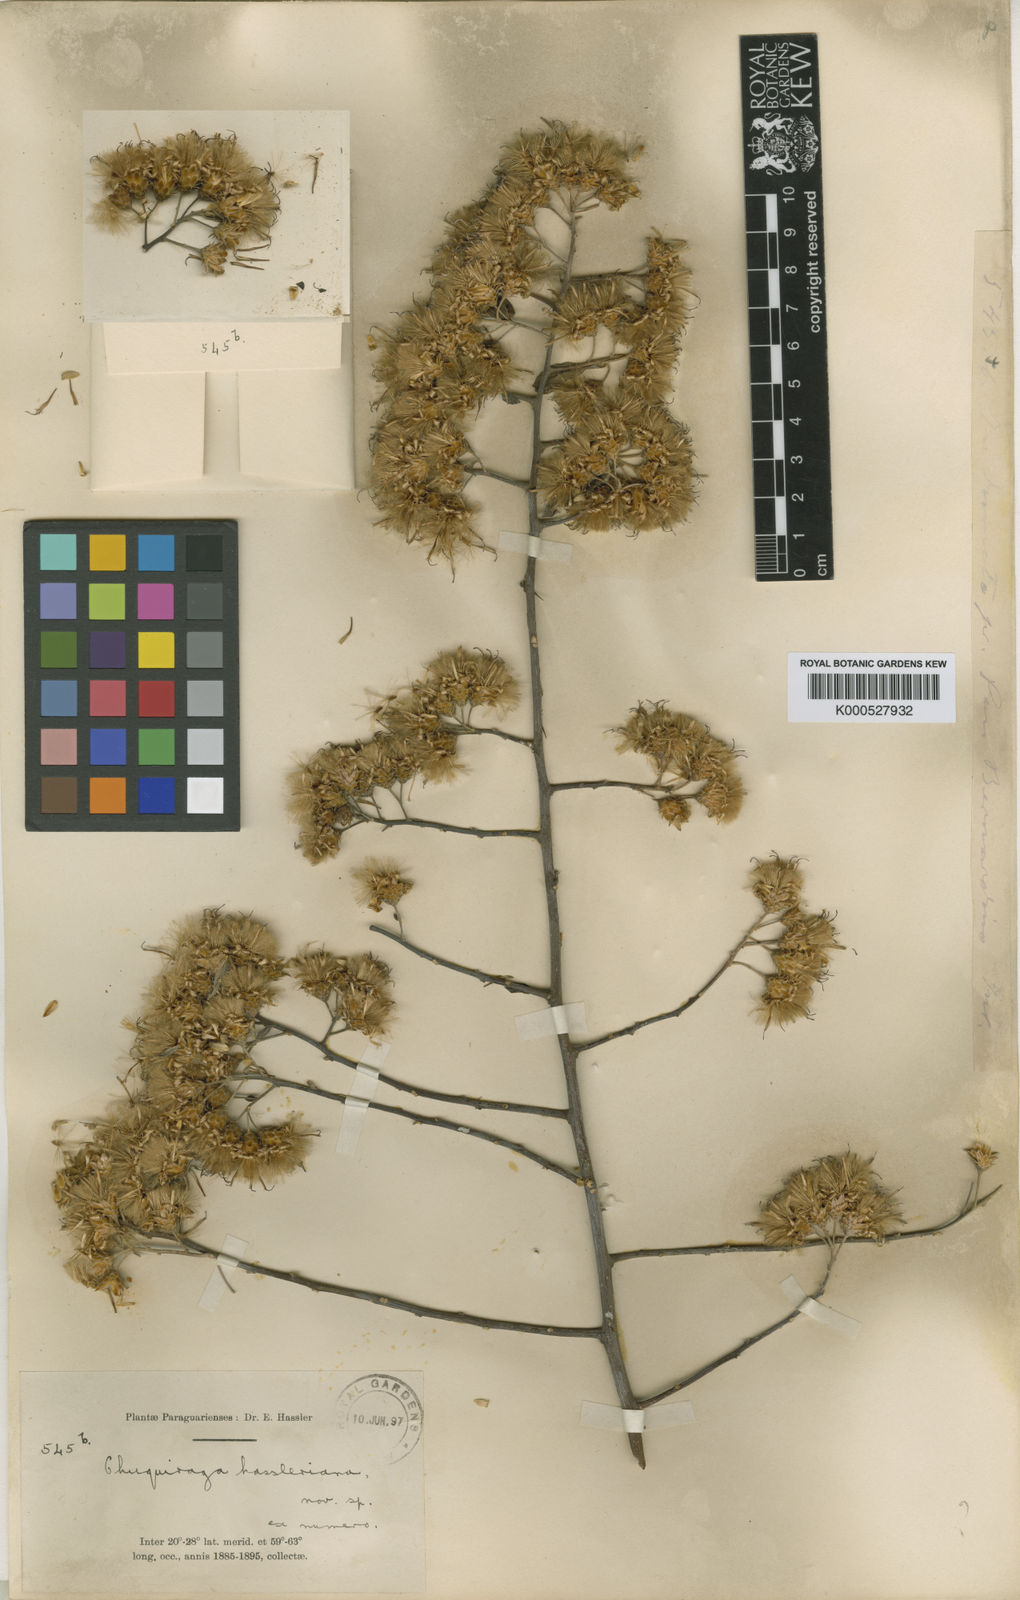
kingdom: Plantae
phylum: Tracheophyta
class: Magnoliopsida
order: Asterales
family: Asteraceae
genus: Dasyphyllum
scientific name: Dasyphyllum varians
